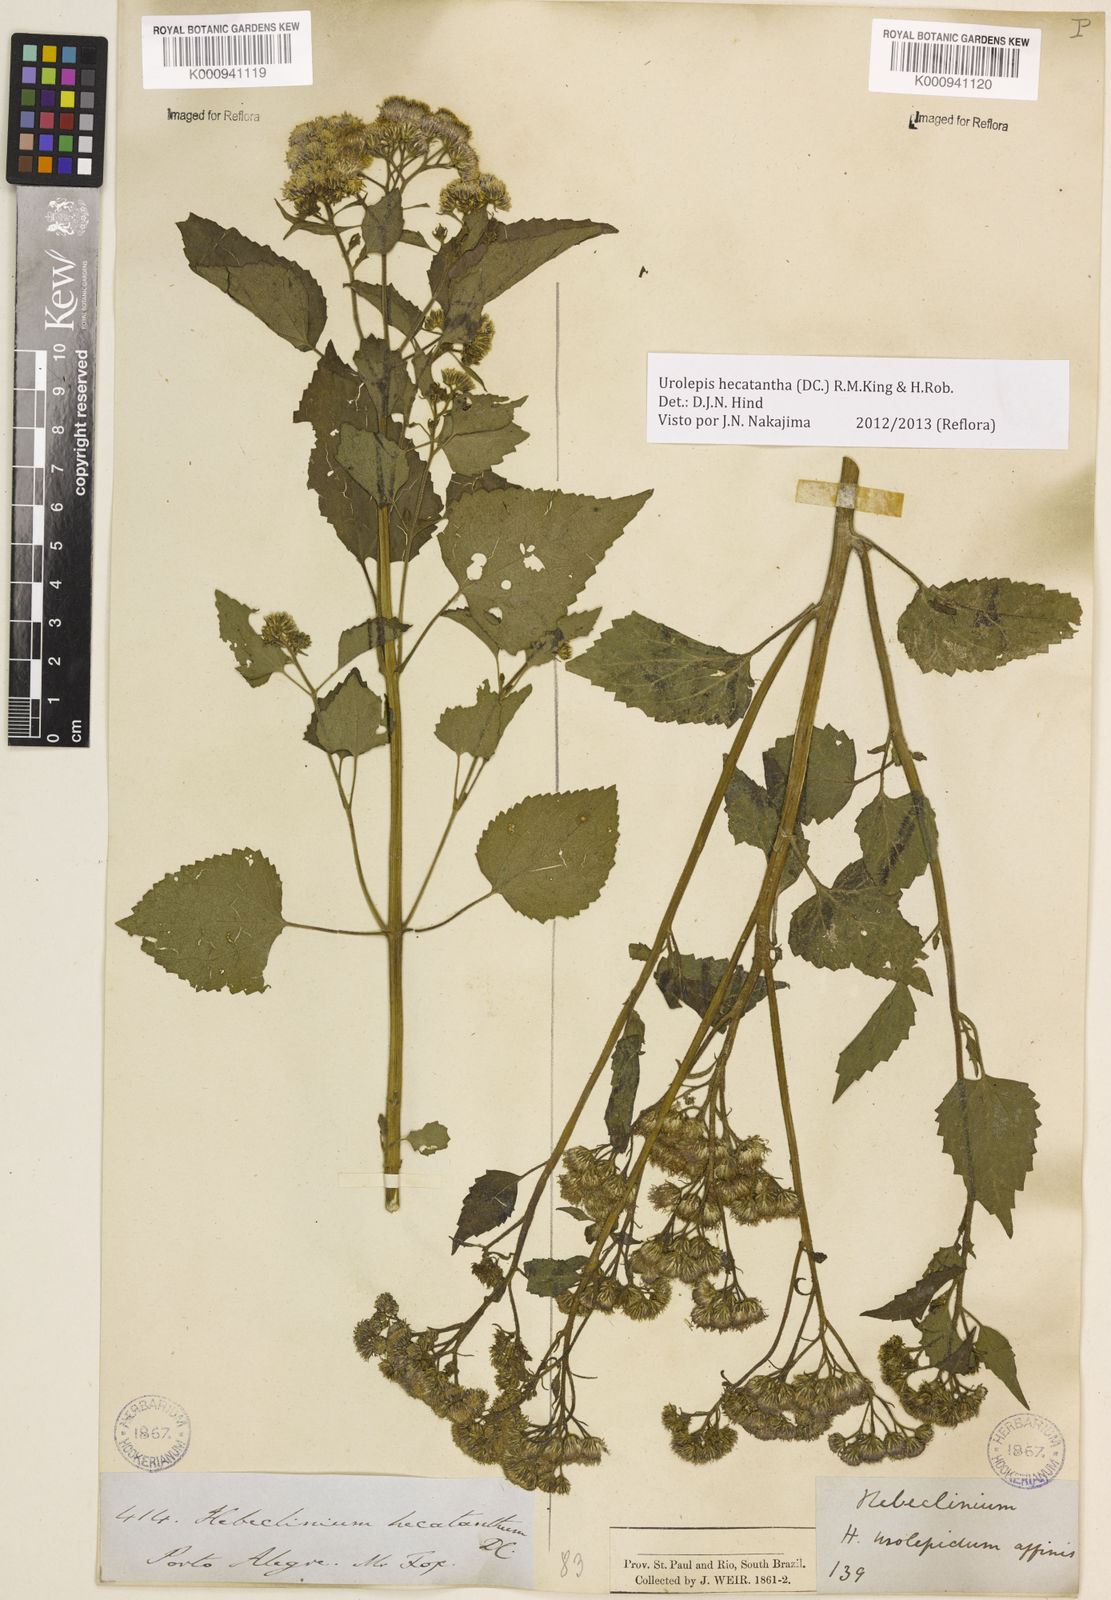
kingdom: Plantae
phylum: Tracheophyta
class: Magnoliopsida
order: Asterales
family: Asteraceae
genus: Urolepis
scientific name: Urolepis hecatantha
